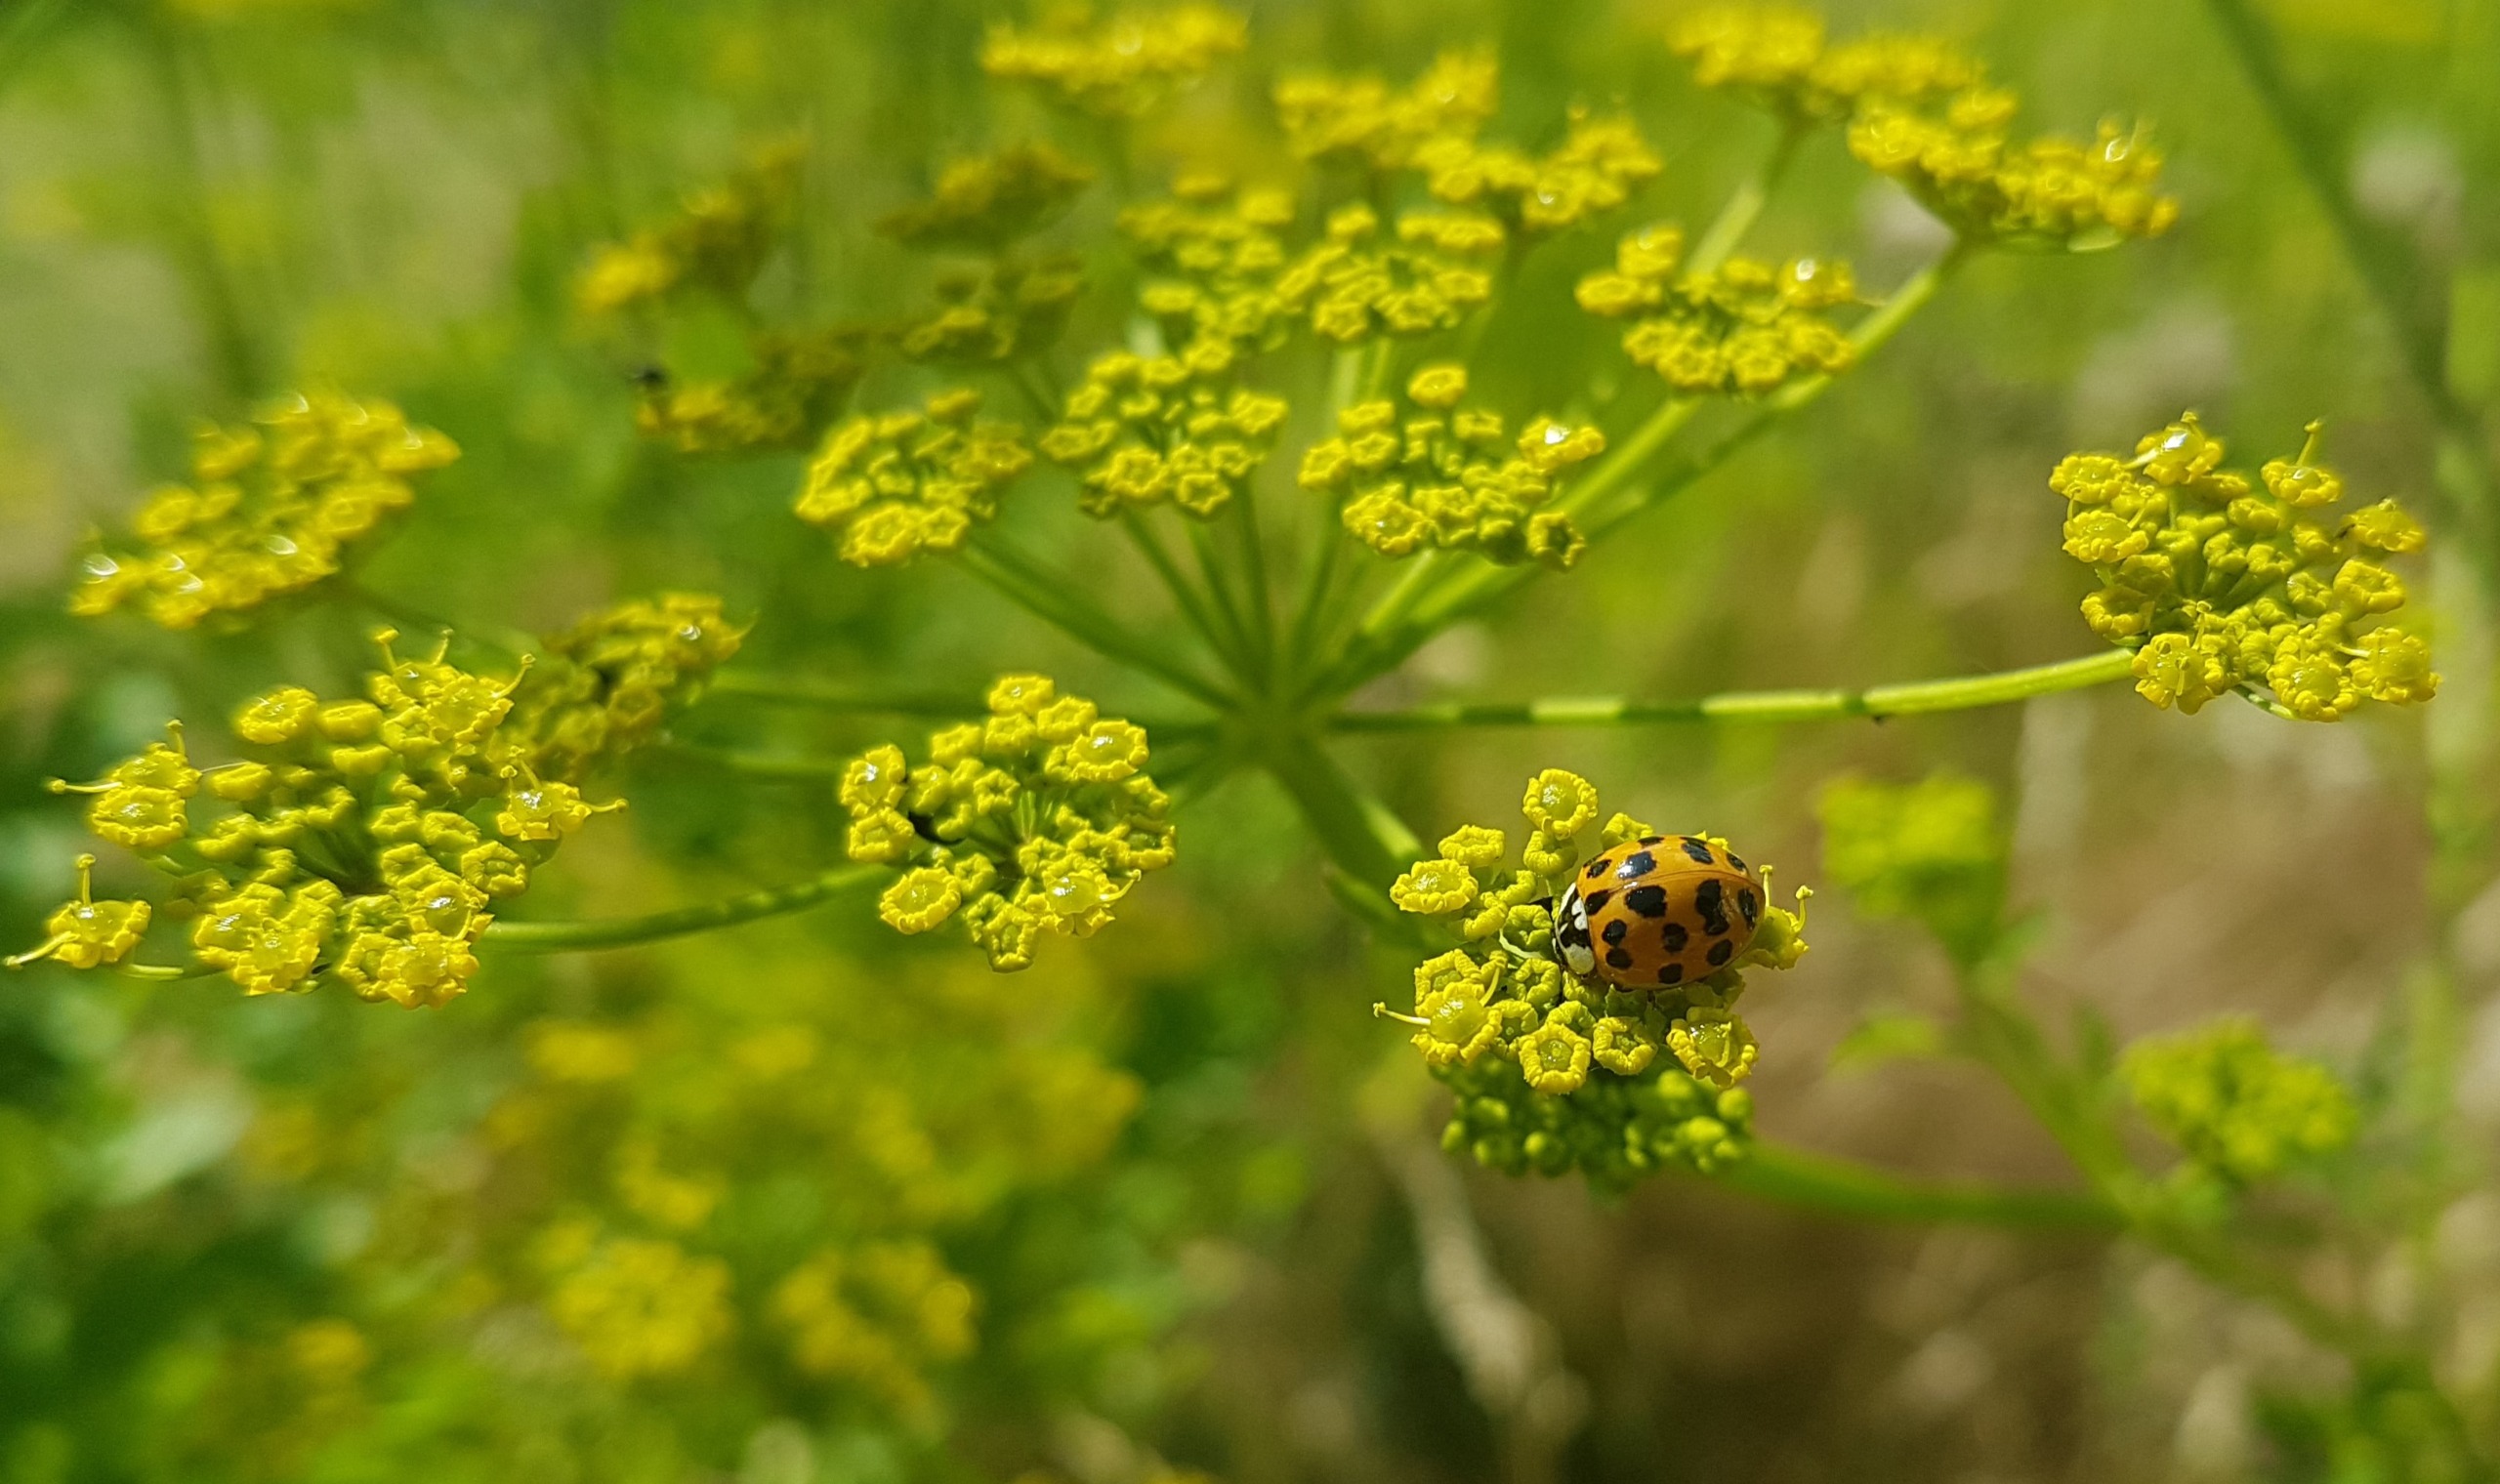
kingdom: Animalia
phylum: Arthropoda
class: Insecta
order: Coleoptera
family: Coccinellidae
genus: Harmonia
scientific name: Harmonia axyridis
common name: Harlekinmariehøne
